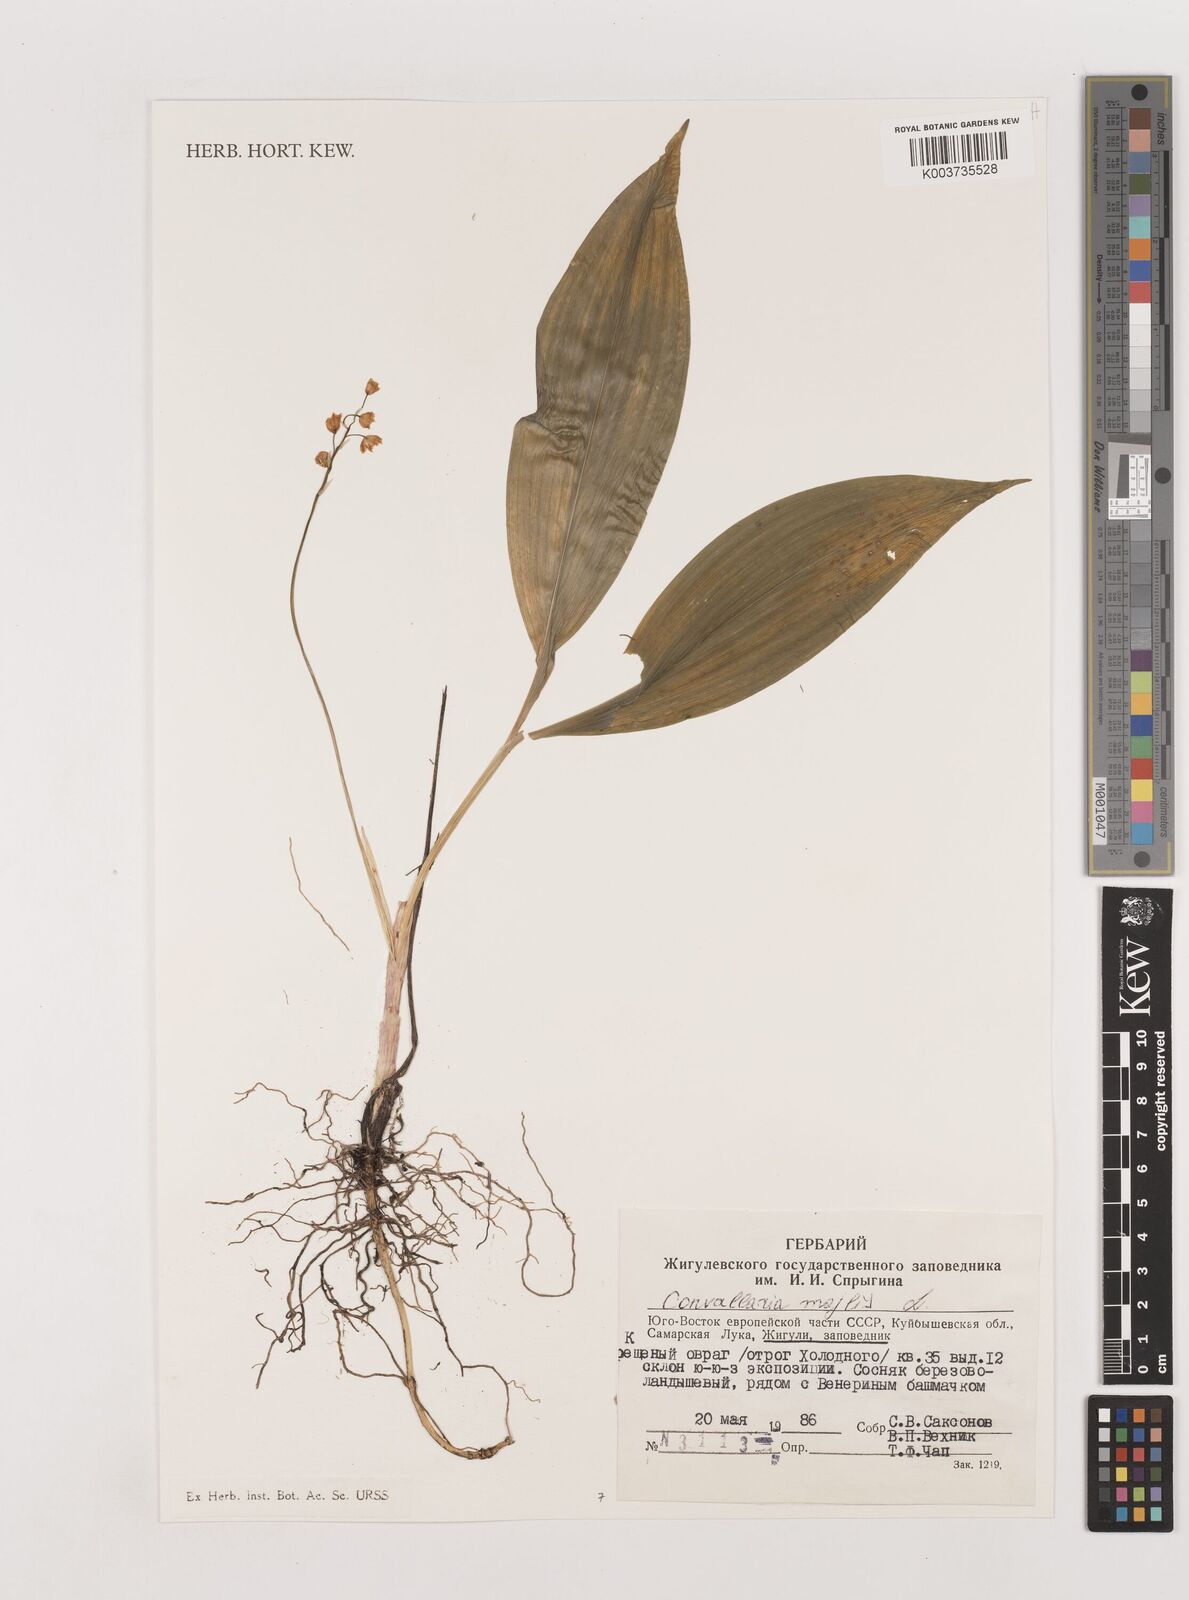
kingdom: Plantae
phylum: Tracheophyta
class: Liliopsida
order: Asparagales
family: Asparagaceae
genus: Convallaria
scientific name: Convallaria majalis
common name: Lily-of-the-valley
